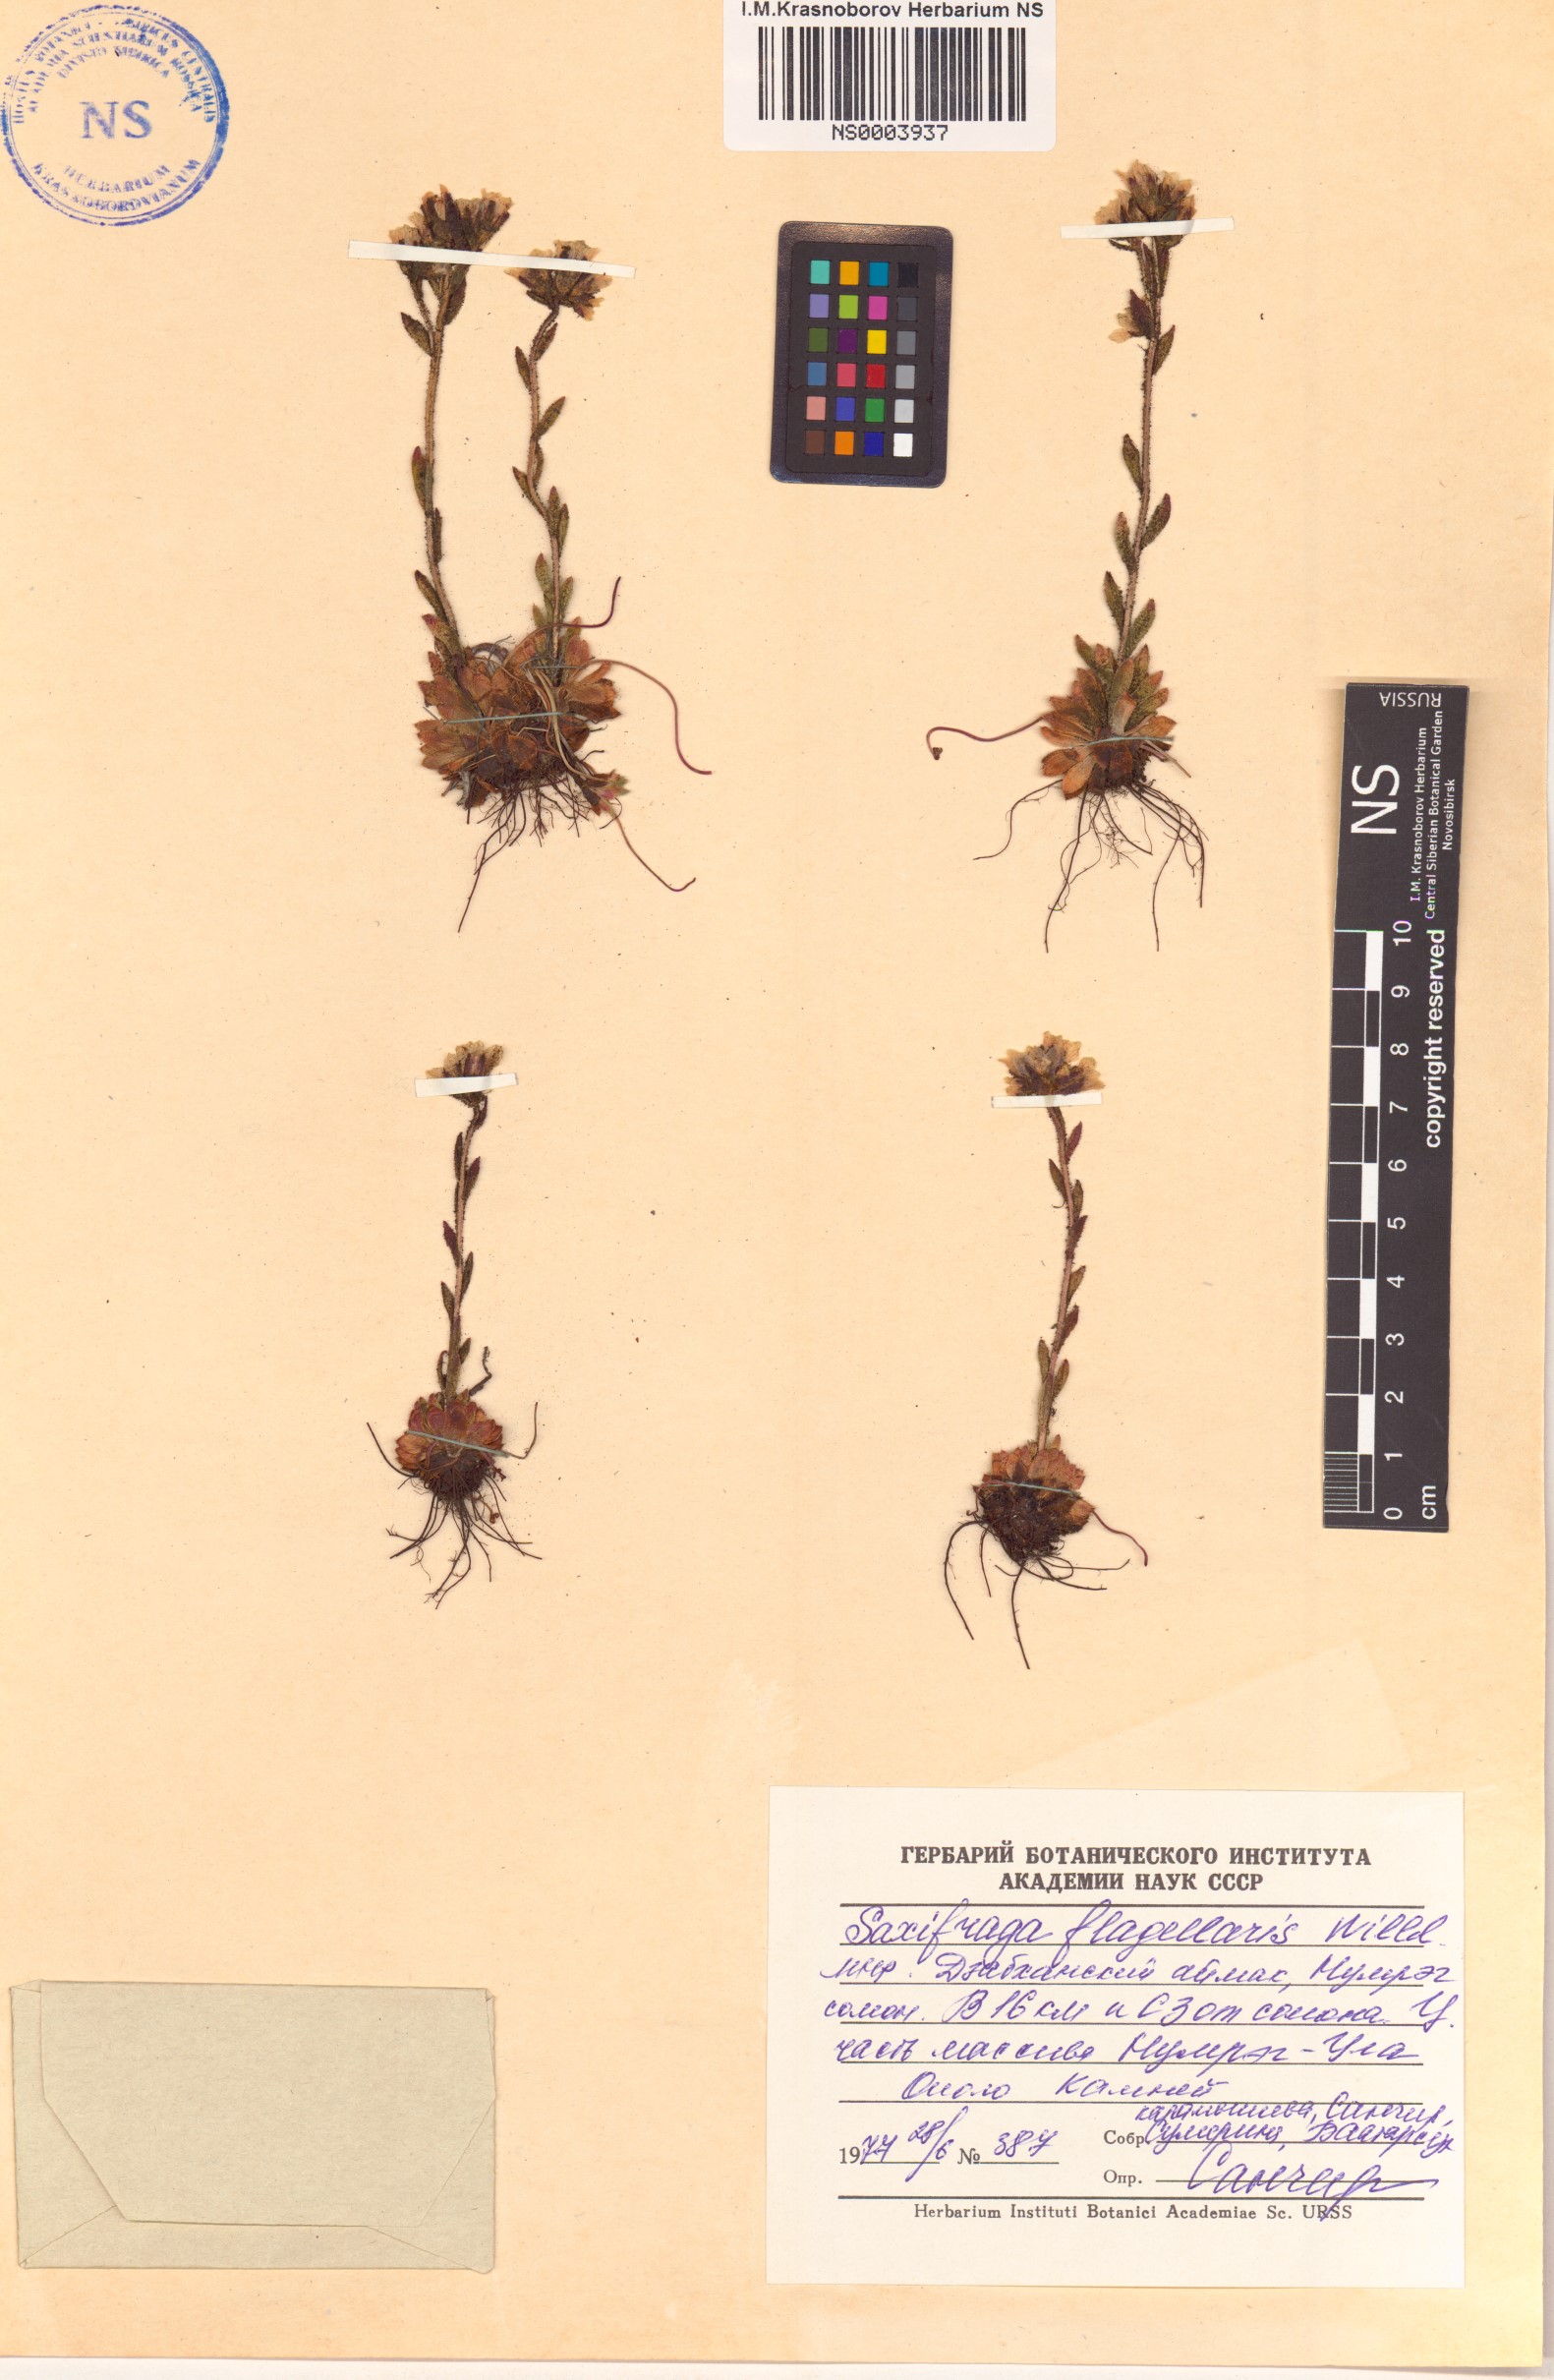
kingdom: Plantae
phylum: Tracheophyta
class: Magnoliopsida
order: Saxifragales
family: Saxifragaceae
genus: Saxifraga
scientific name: Saxifraga flagellaris
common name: Spider saxifrage
